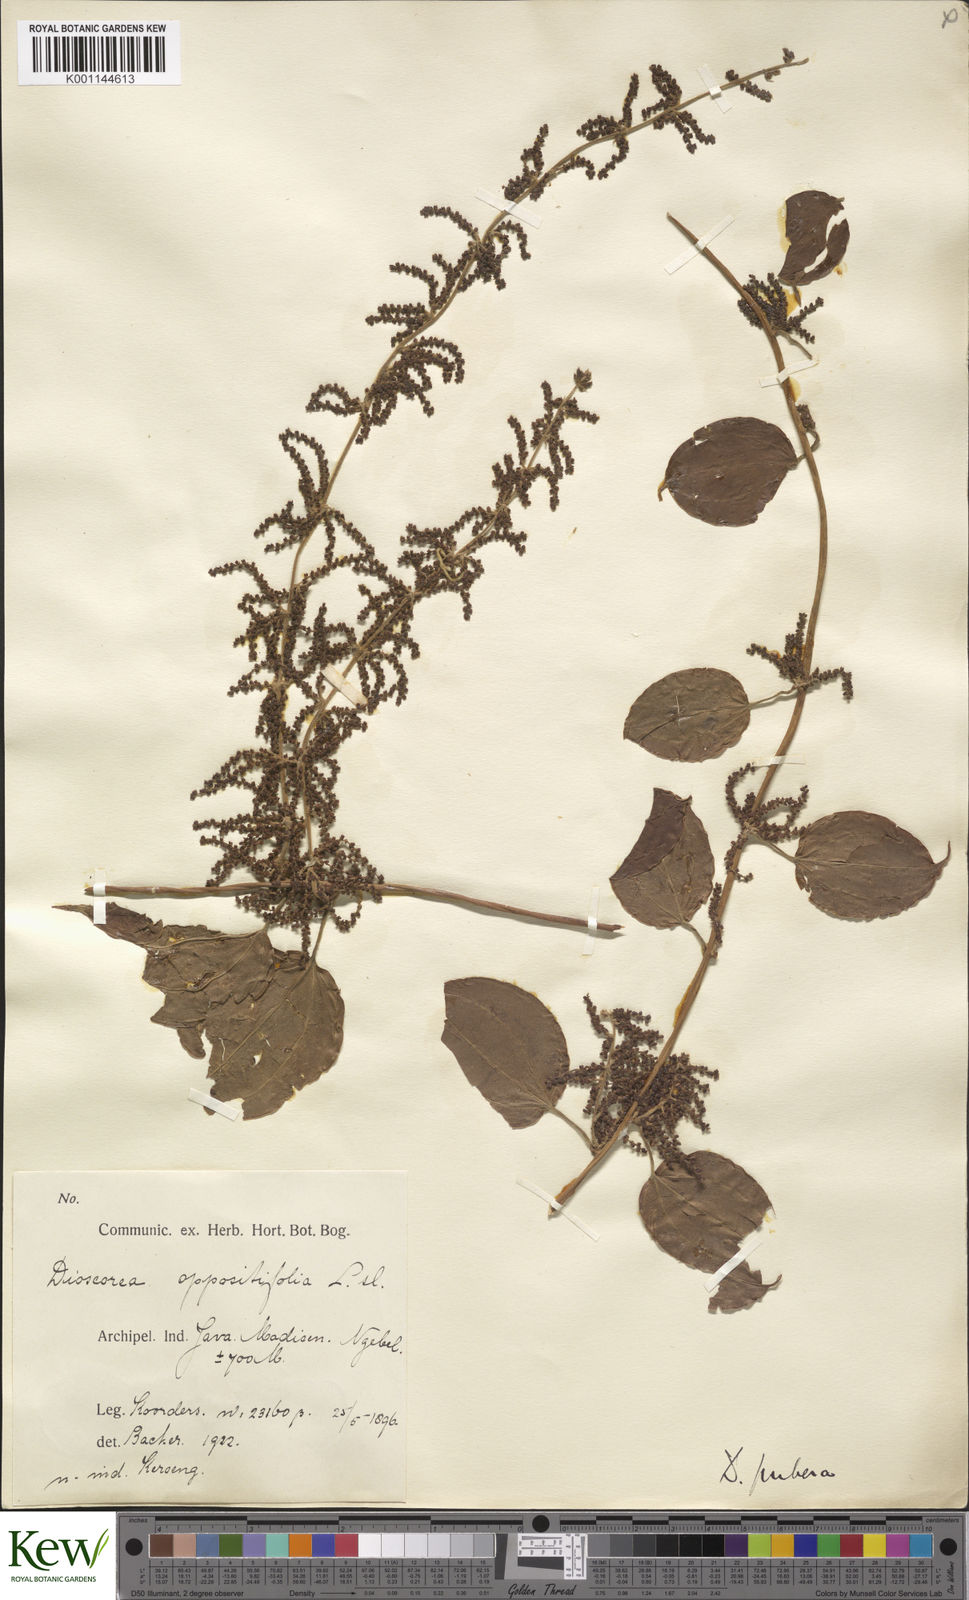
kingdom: Plantae
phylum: Tracheophyta
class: Liliopsida
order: Dioscoreales
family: Dioscoreaceae
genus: Dioscorea
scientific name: Dioscorea pubera
